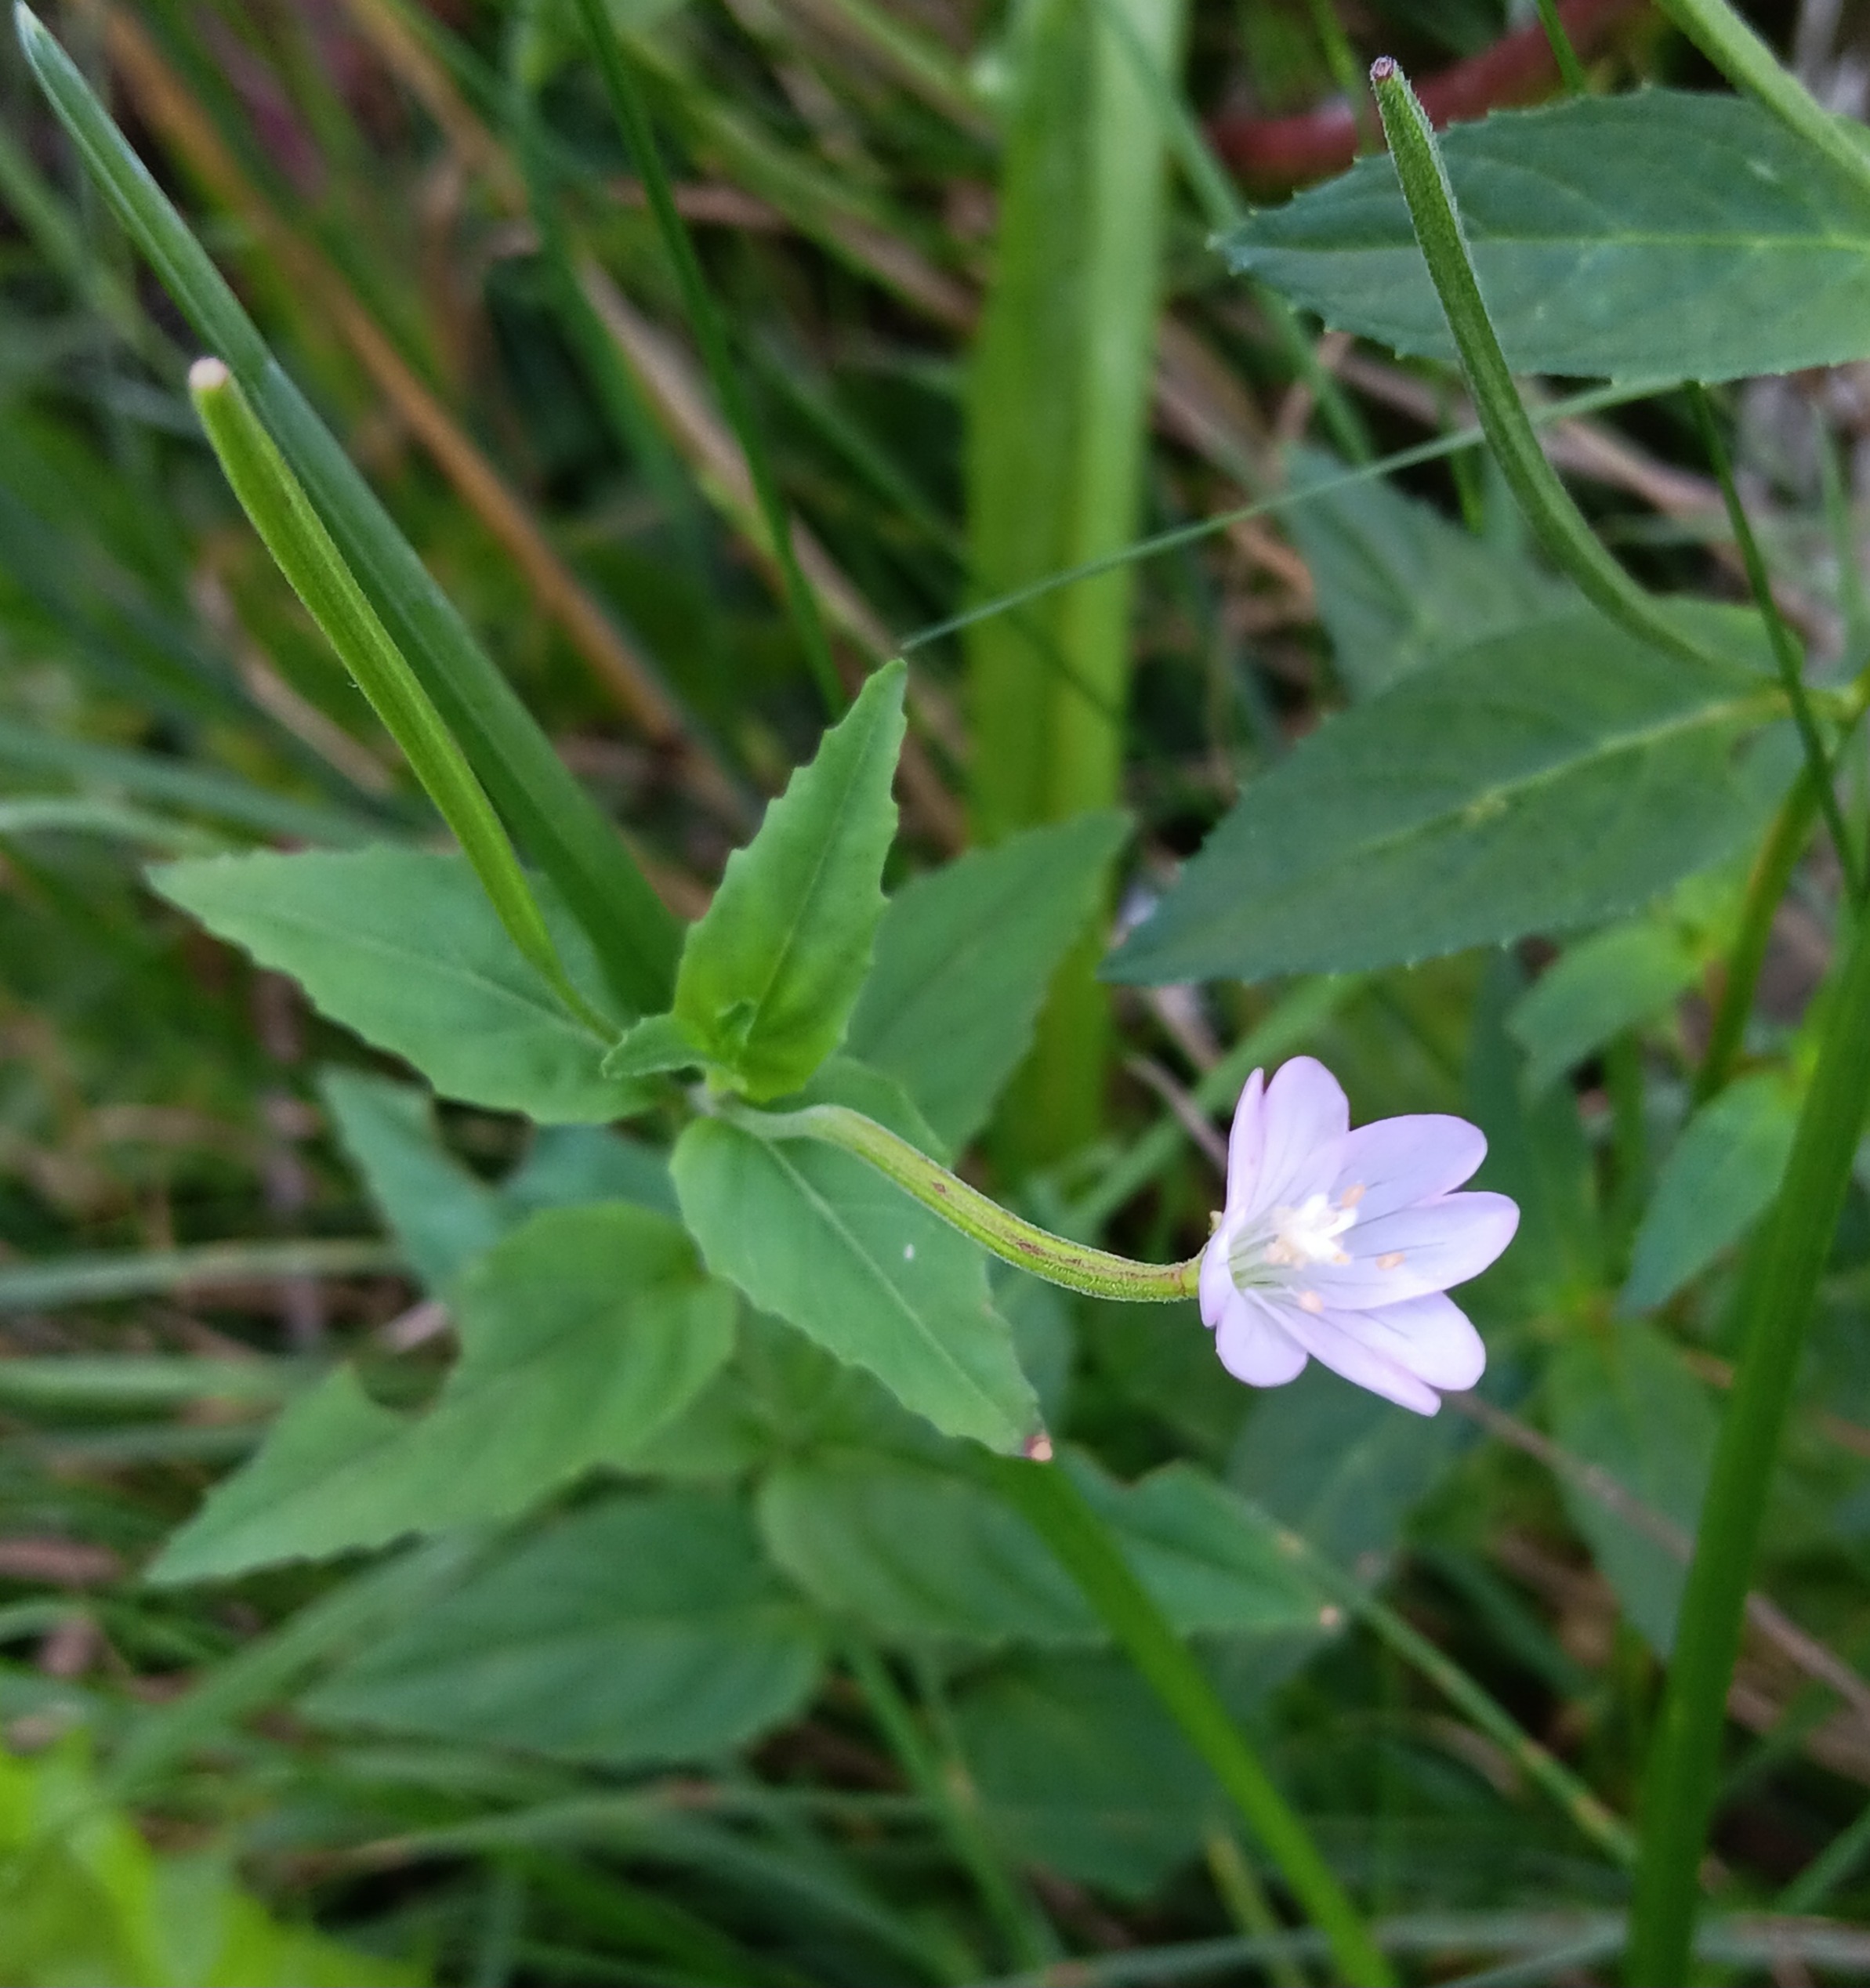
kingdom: Plantae
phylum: Tracheophyta
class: Magnoliopsida
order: Myrtales
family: Onagraceae
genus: Epilobium
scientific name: Epilobium montanum
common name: Glat dueurt
